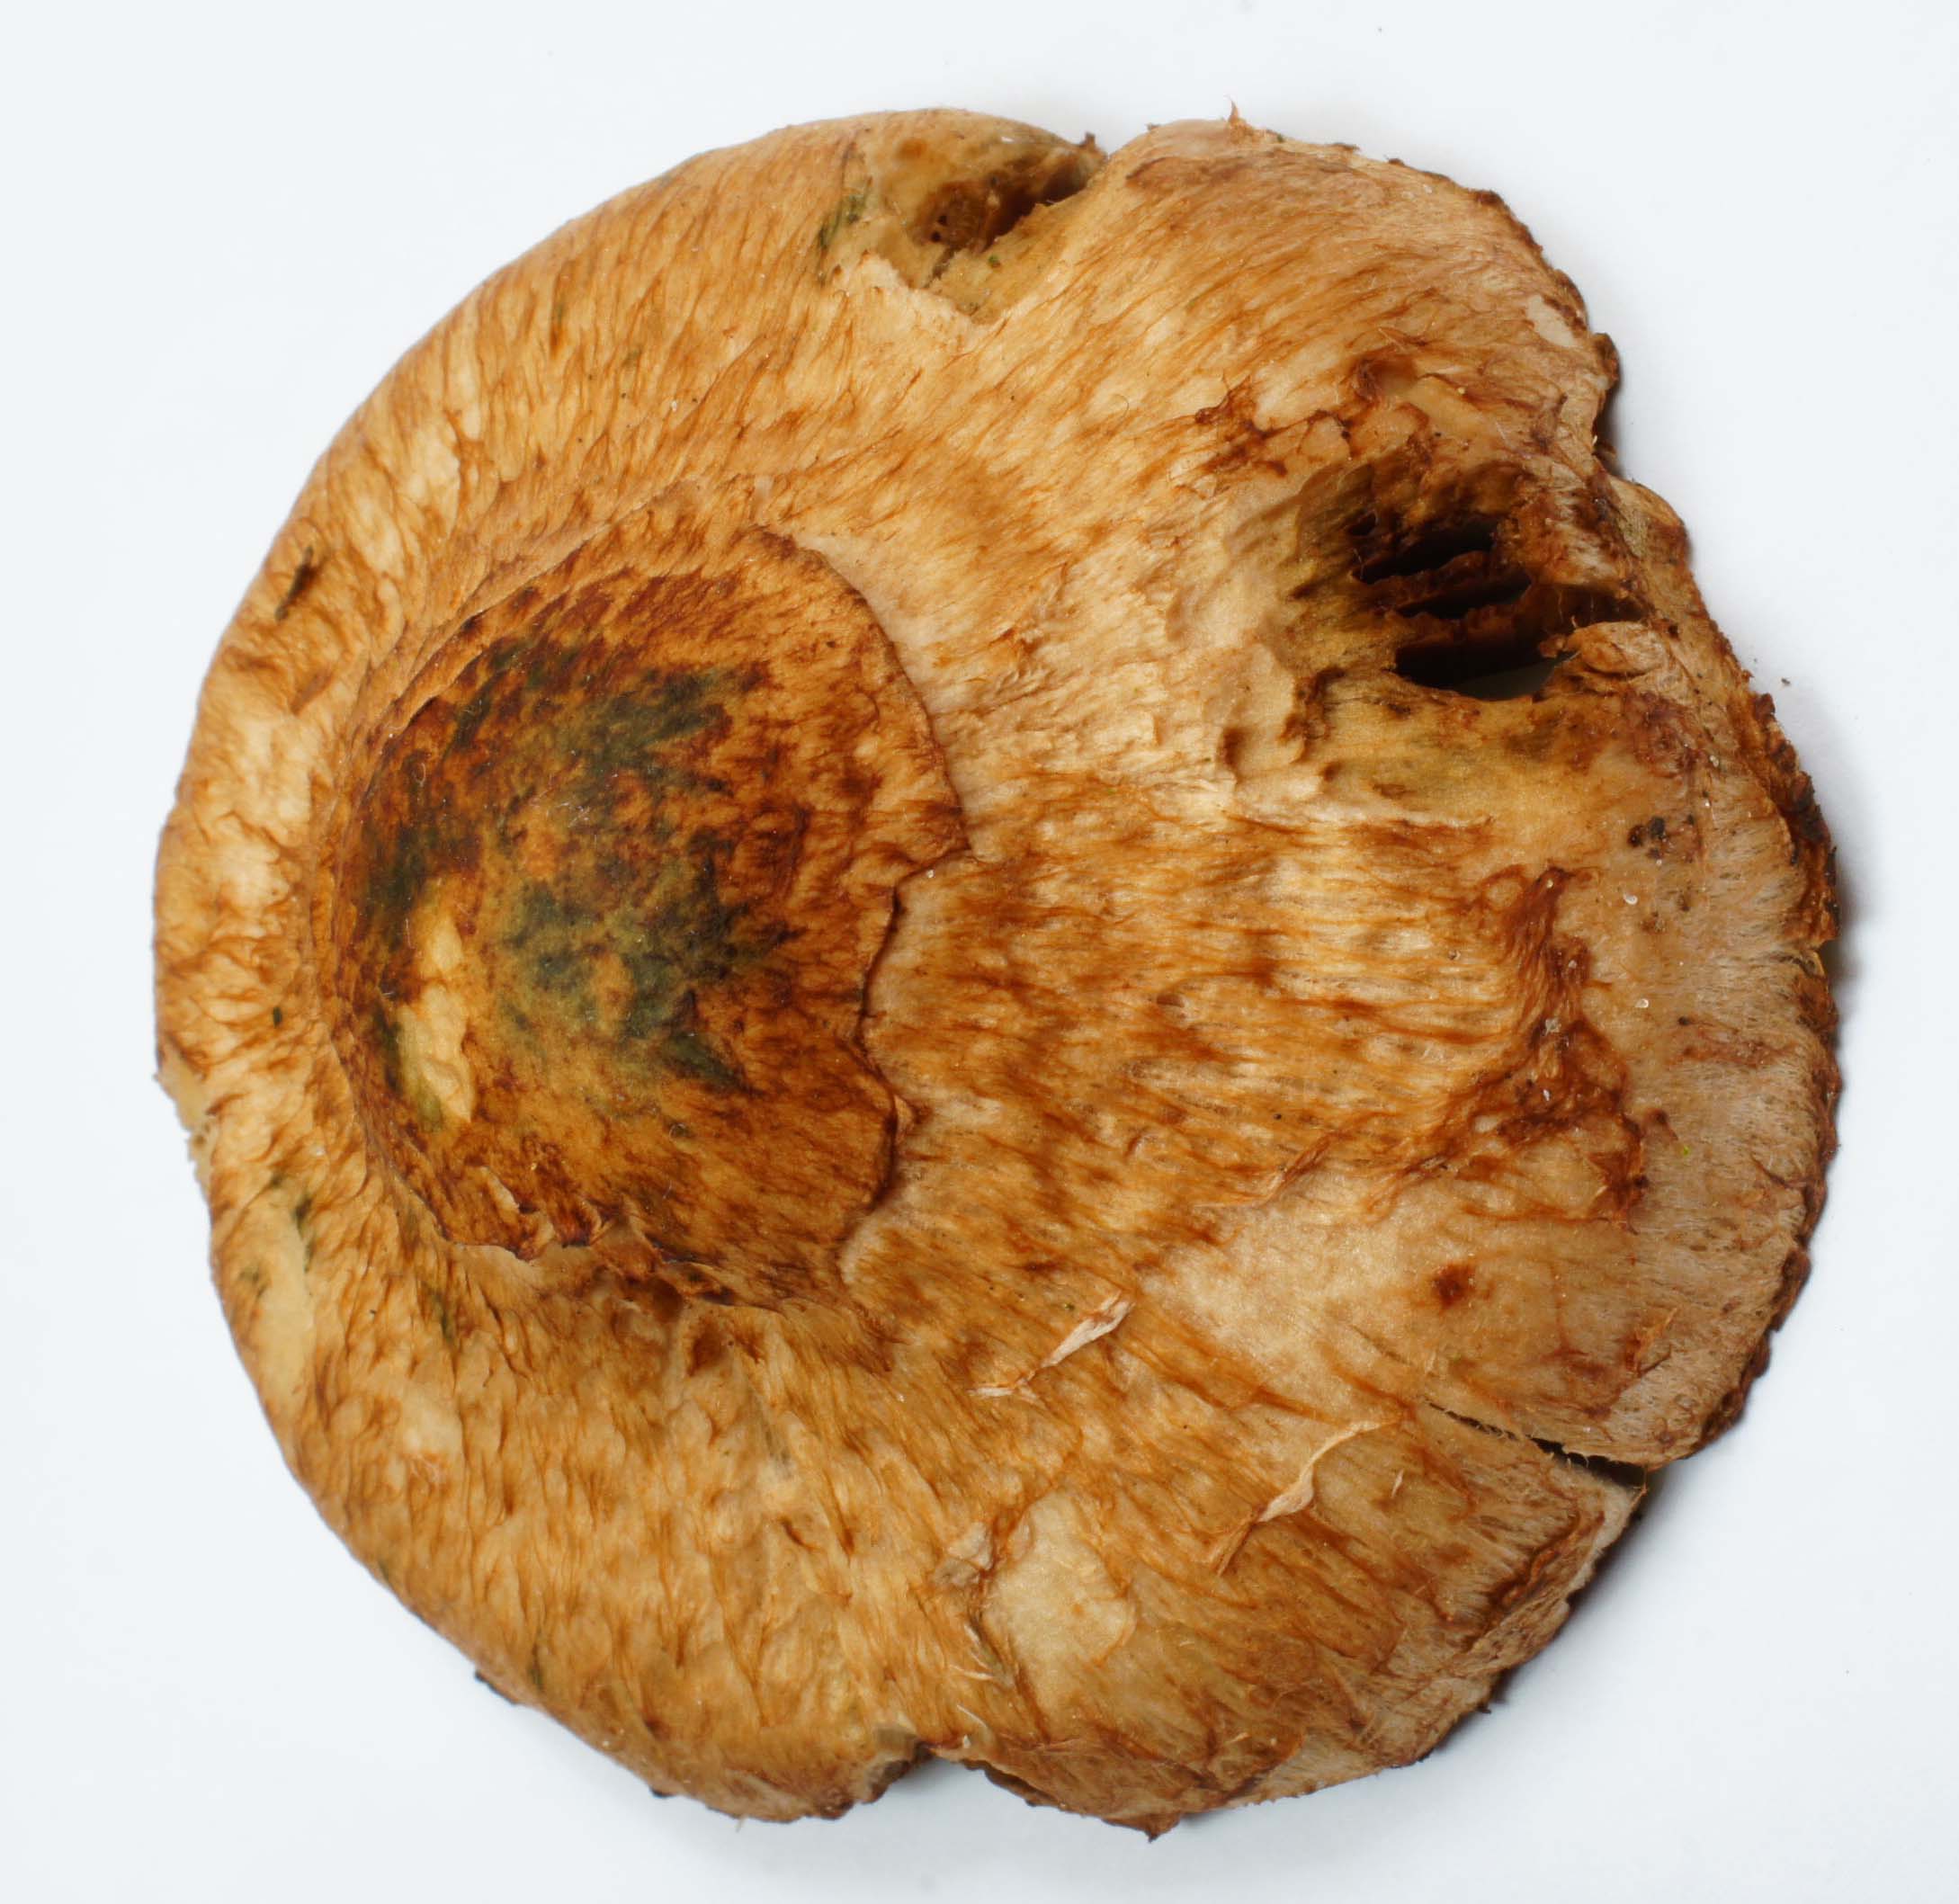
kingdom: Fungi
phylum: Basidiomycota
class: Agaricomycetes
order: Agaricales
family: Strophariaceae
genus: Pholiota
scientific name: Pholiota heteroclita
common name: duftende kæmpeskælhat
